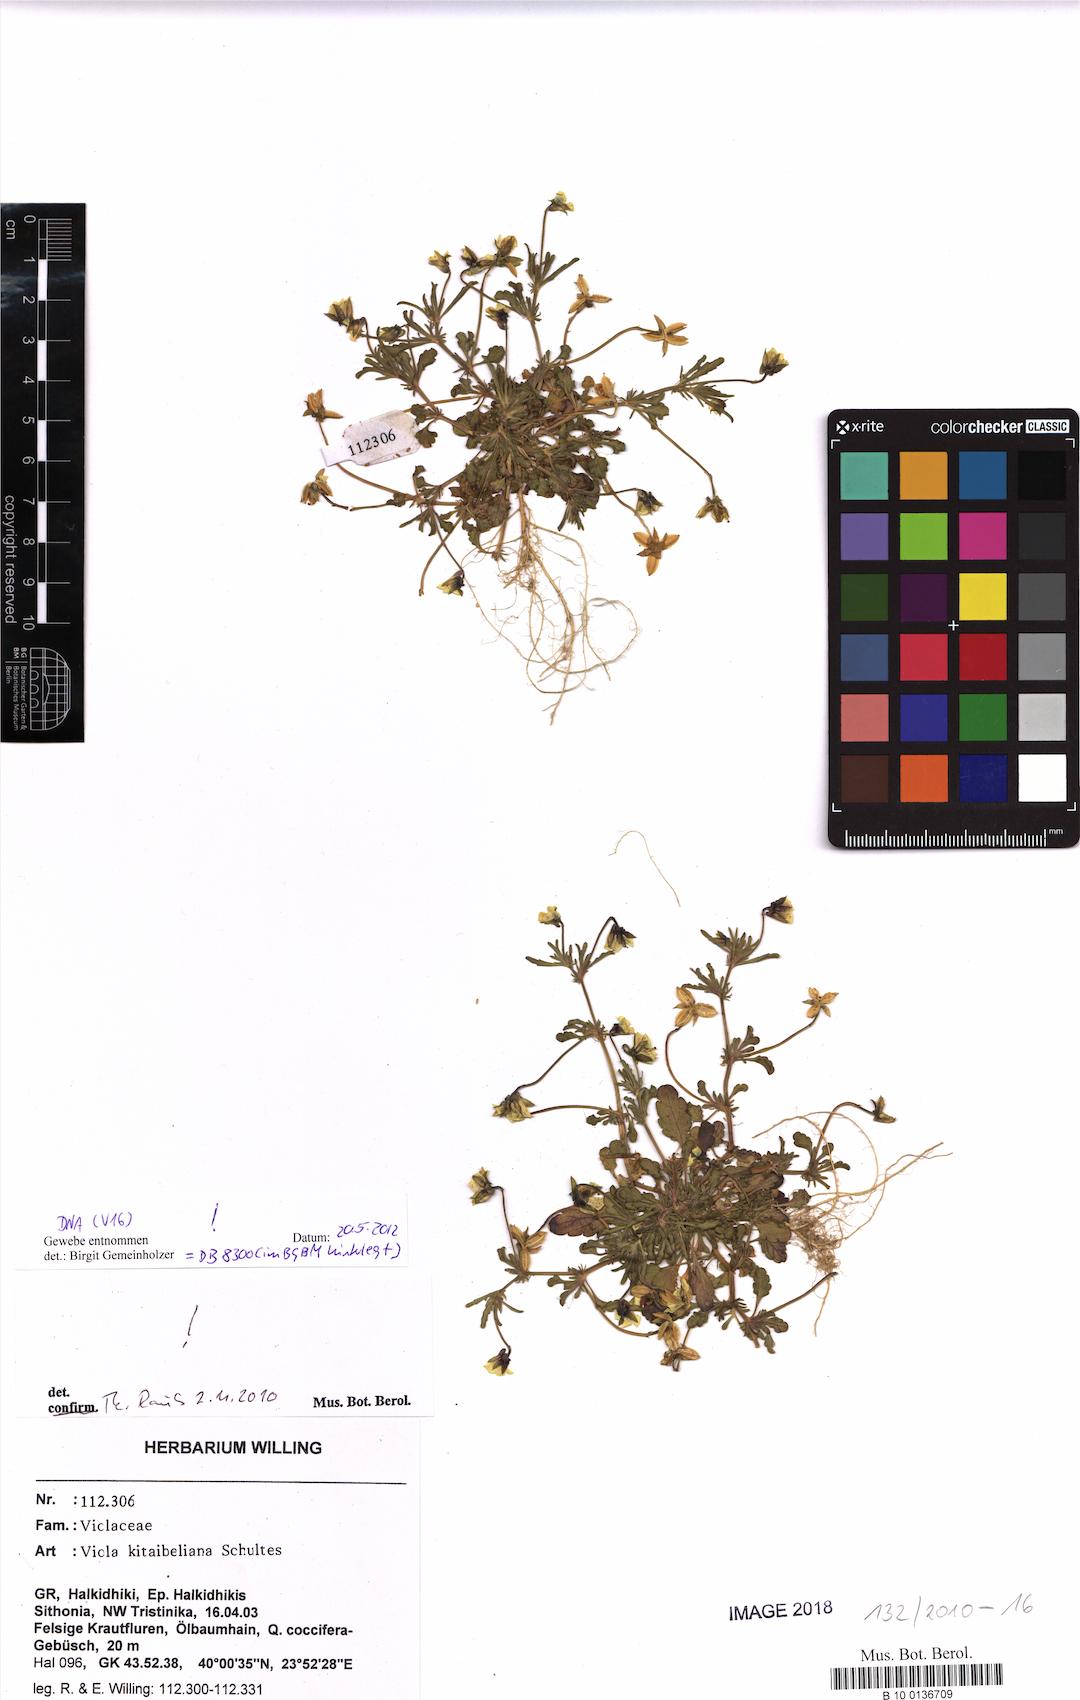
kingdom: Plantae
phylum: Tracheophyta
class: Magnoliopsida
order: Malpighiales
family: Violaceae
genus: Viola
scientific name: Viola kitaibeliana
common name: Dwarf pansy
